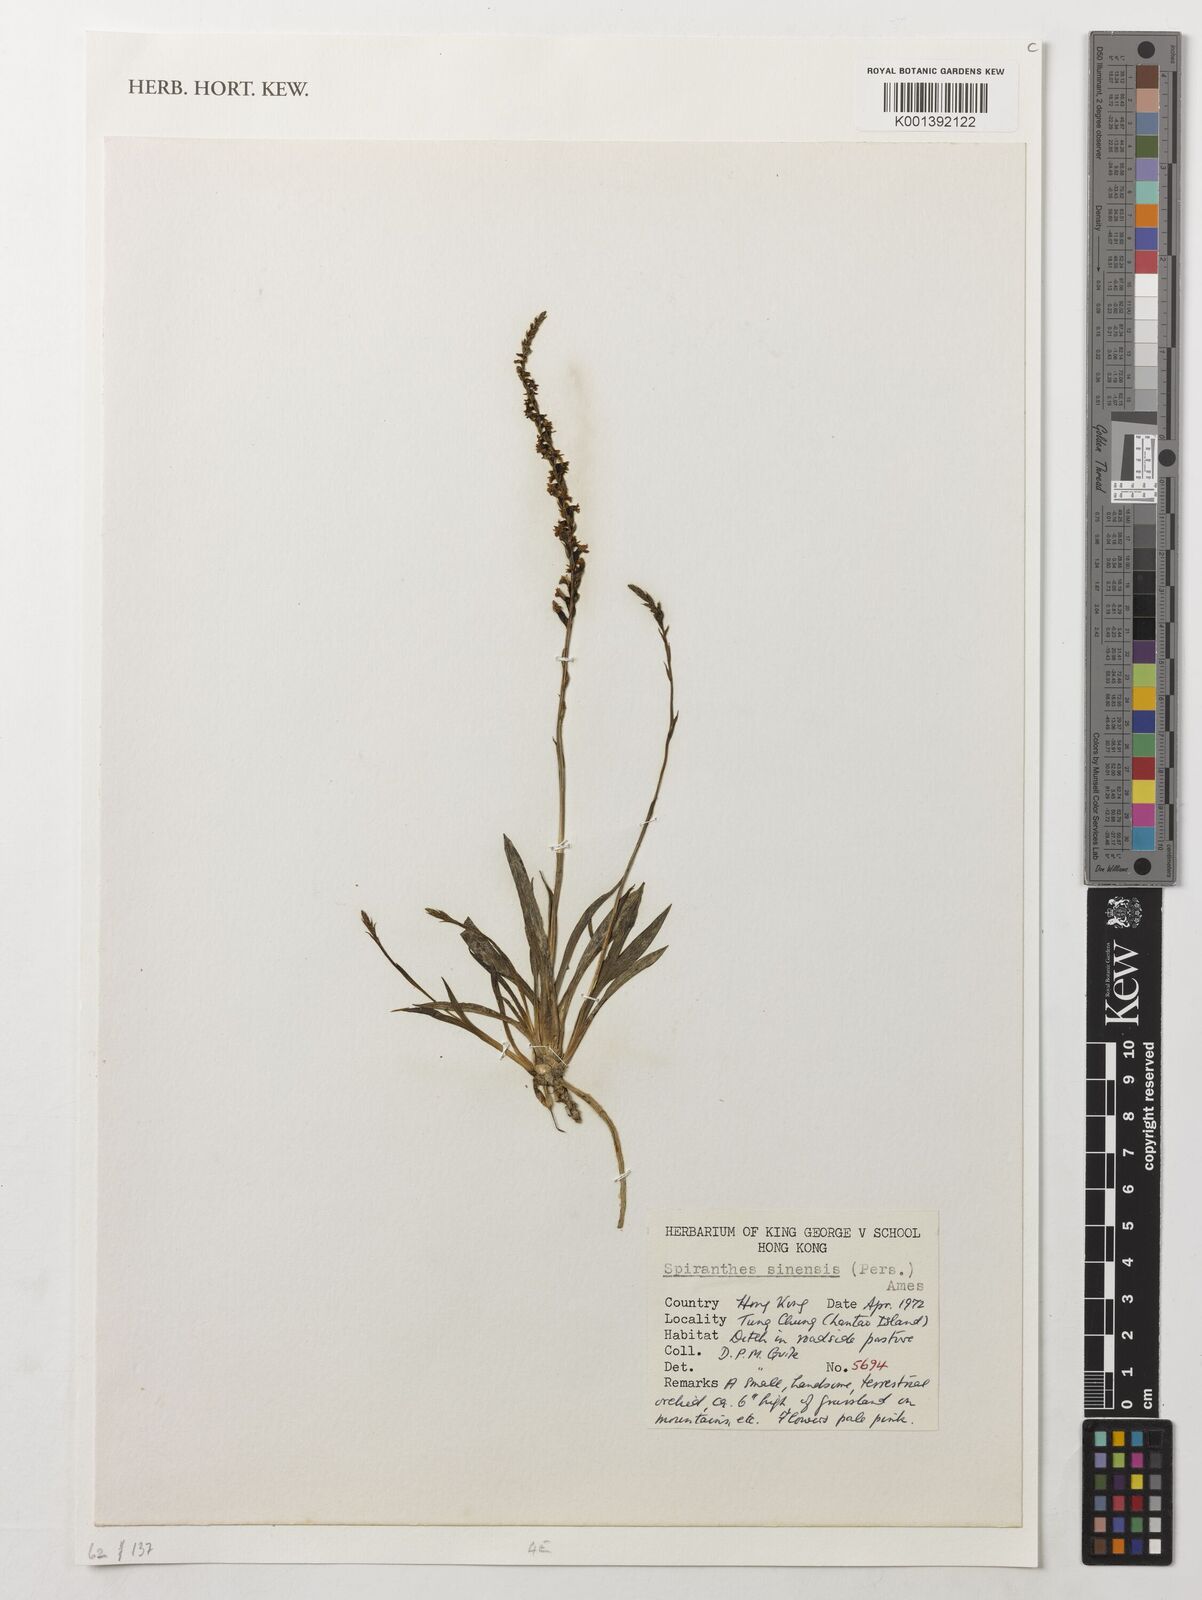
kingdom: Plantae
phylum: Tracheophyta
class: Liliopsida
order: Asparagales
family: Orchidaceae
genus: Spiranthes
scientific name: Spiranthes sinensis
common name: Chinese spiranthes
